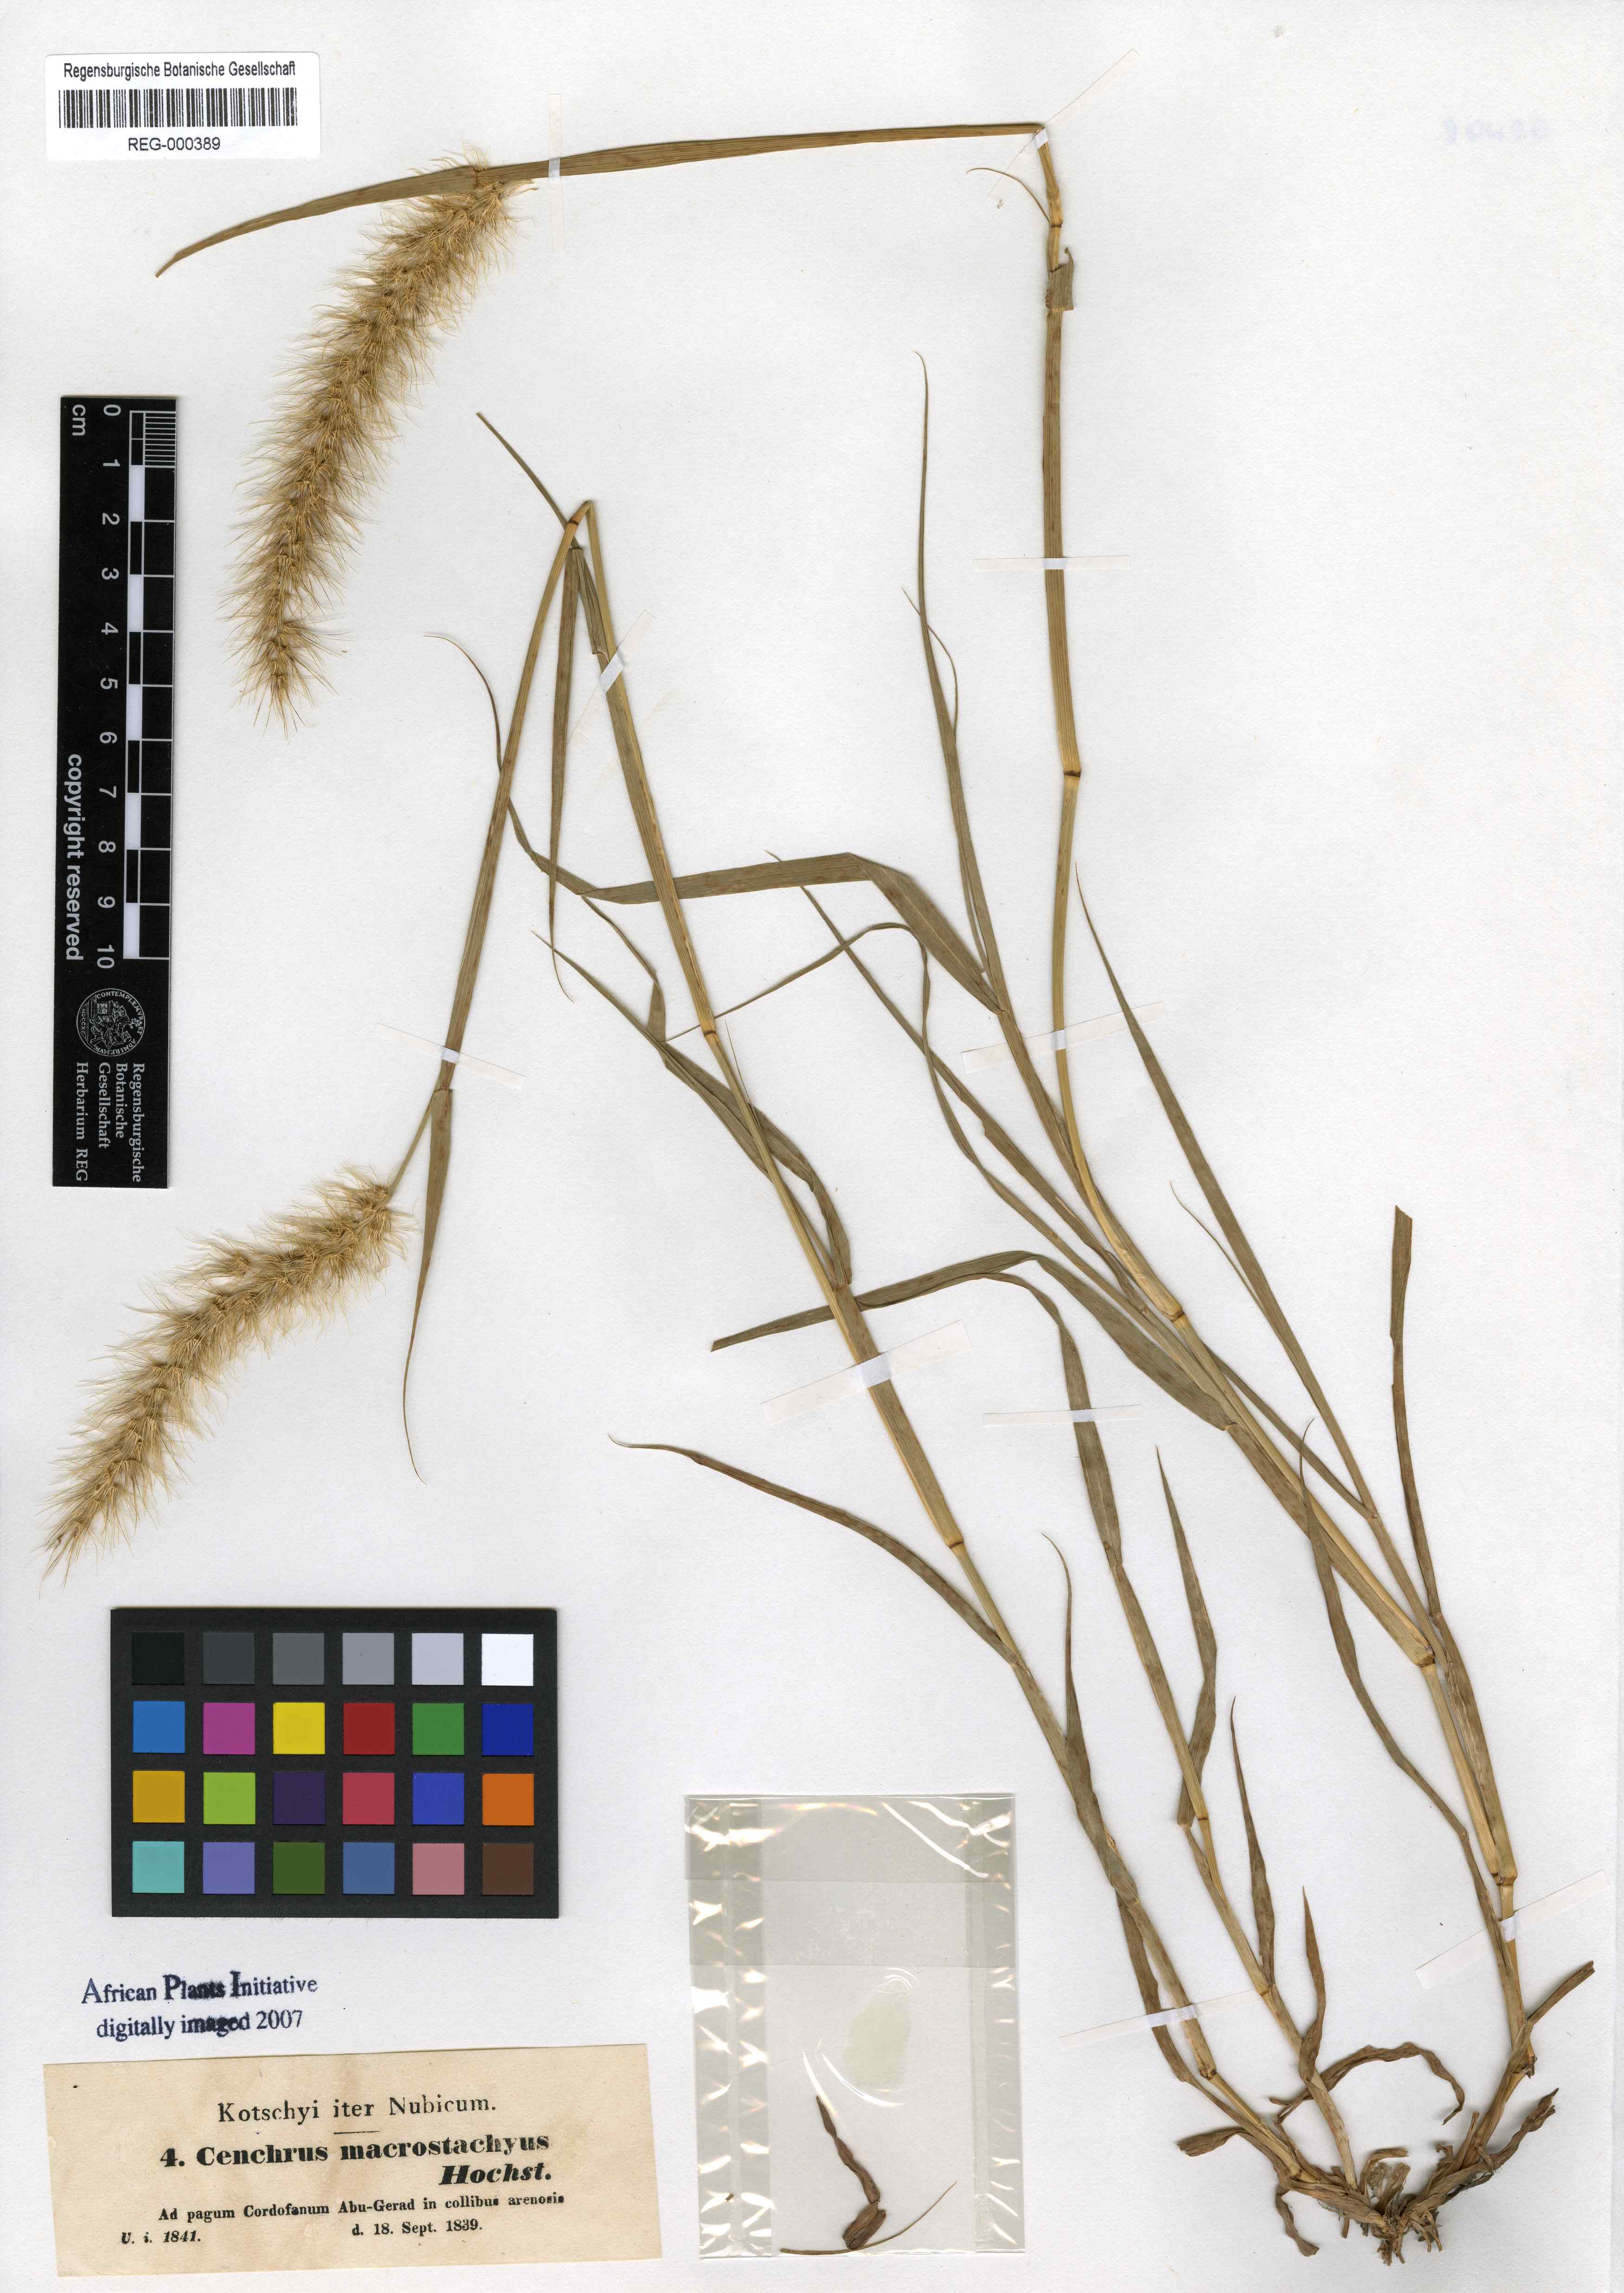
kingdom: Plantae
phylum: Tracheophyta
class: Liliopsida
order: Poales
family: Poaceae
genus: Cenchrus
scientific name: Cenchrus prieurii
